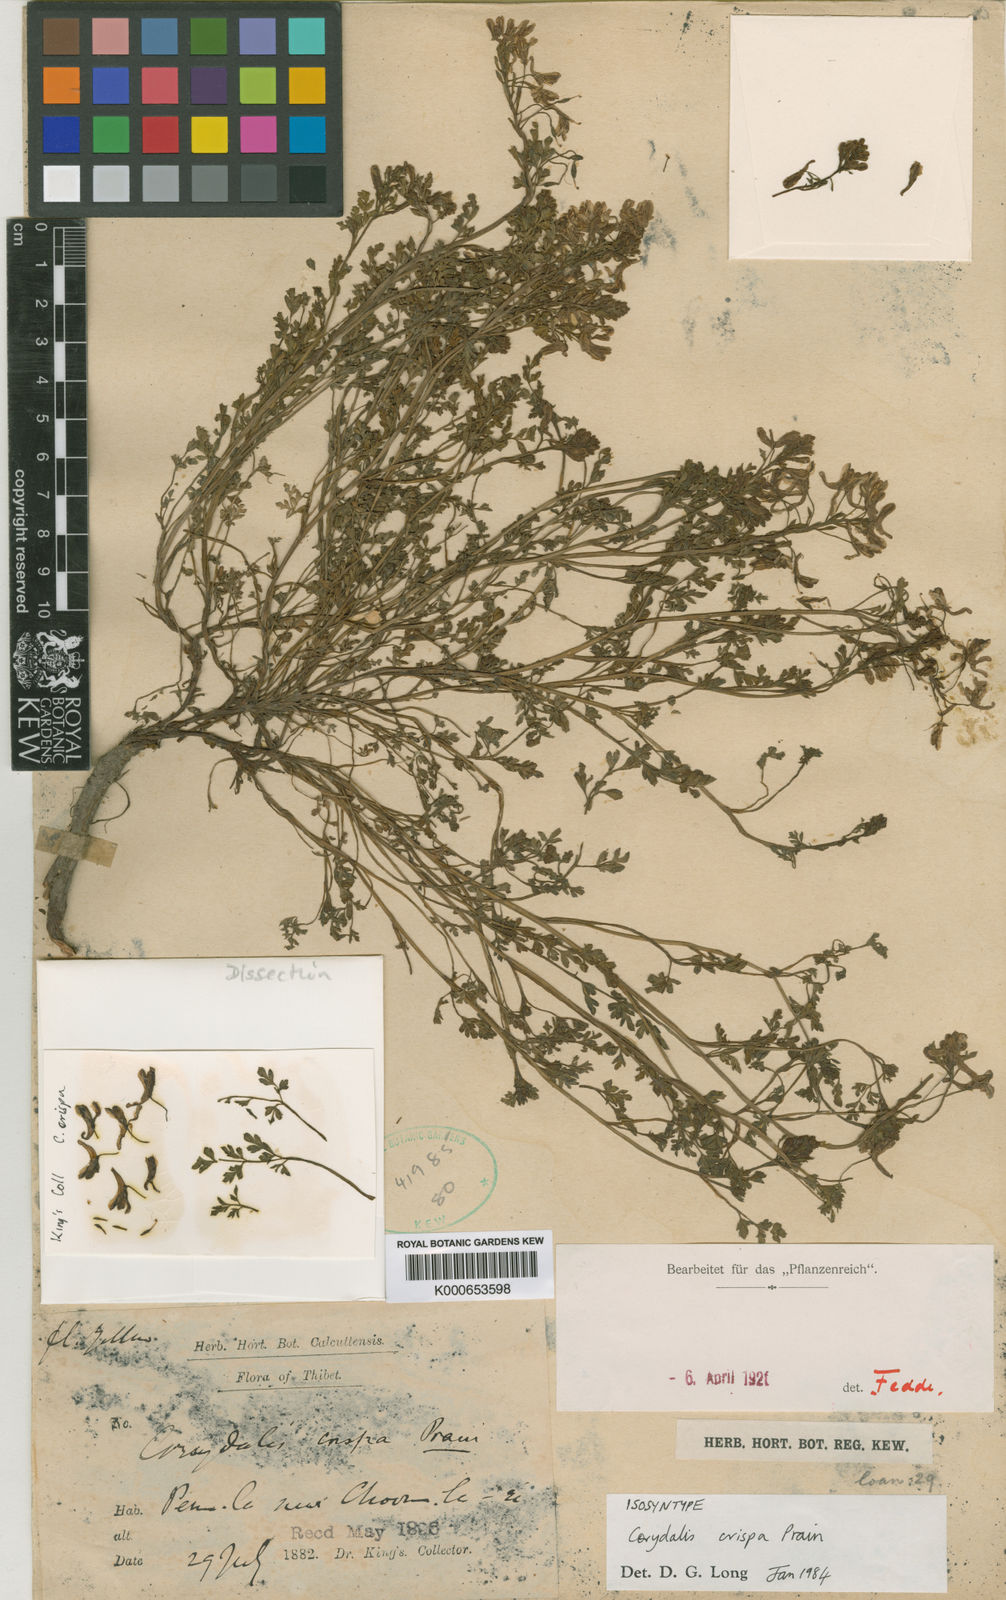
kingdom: Plantae
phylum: Tracheophyta
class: Magnoliopsida
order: Ranunculales
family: Papaveraceae
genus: Corydalis
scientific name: Corydalis crispa
